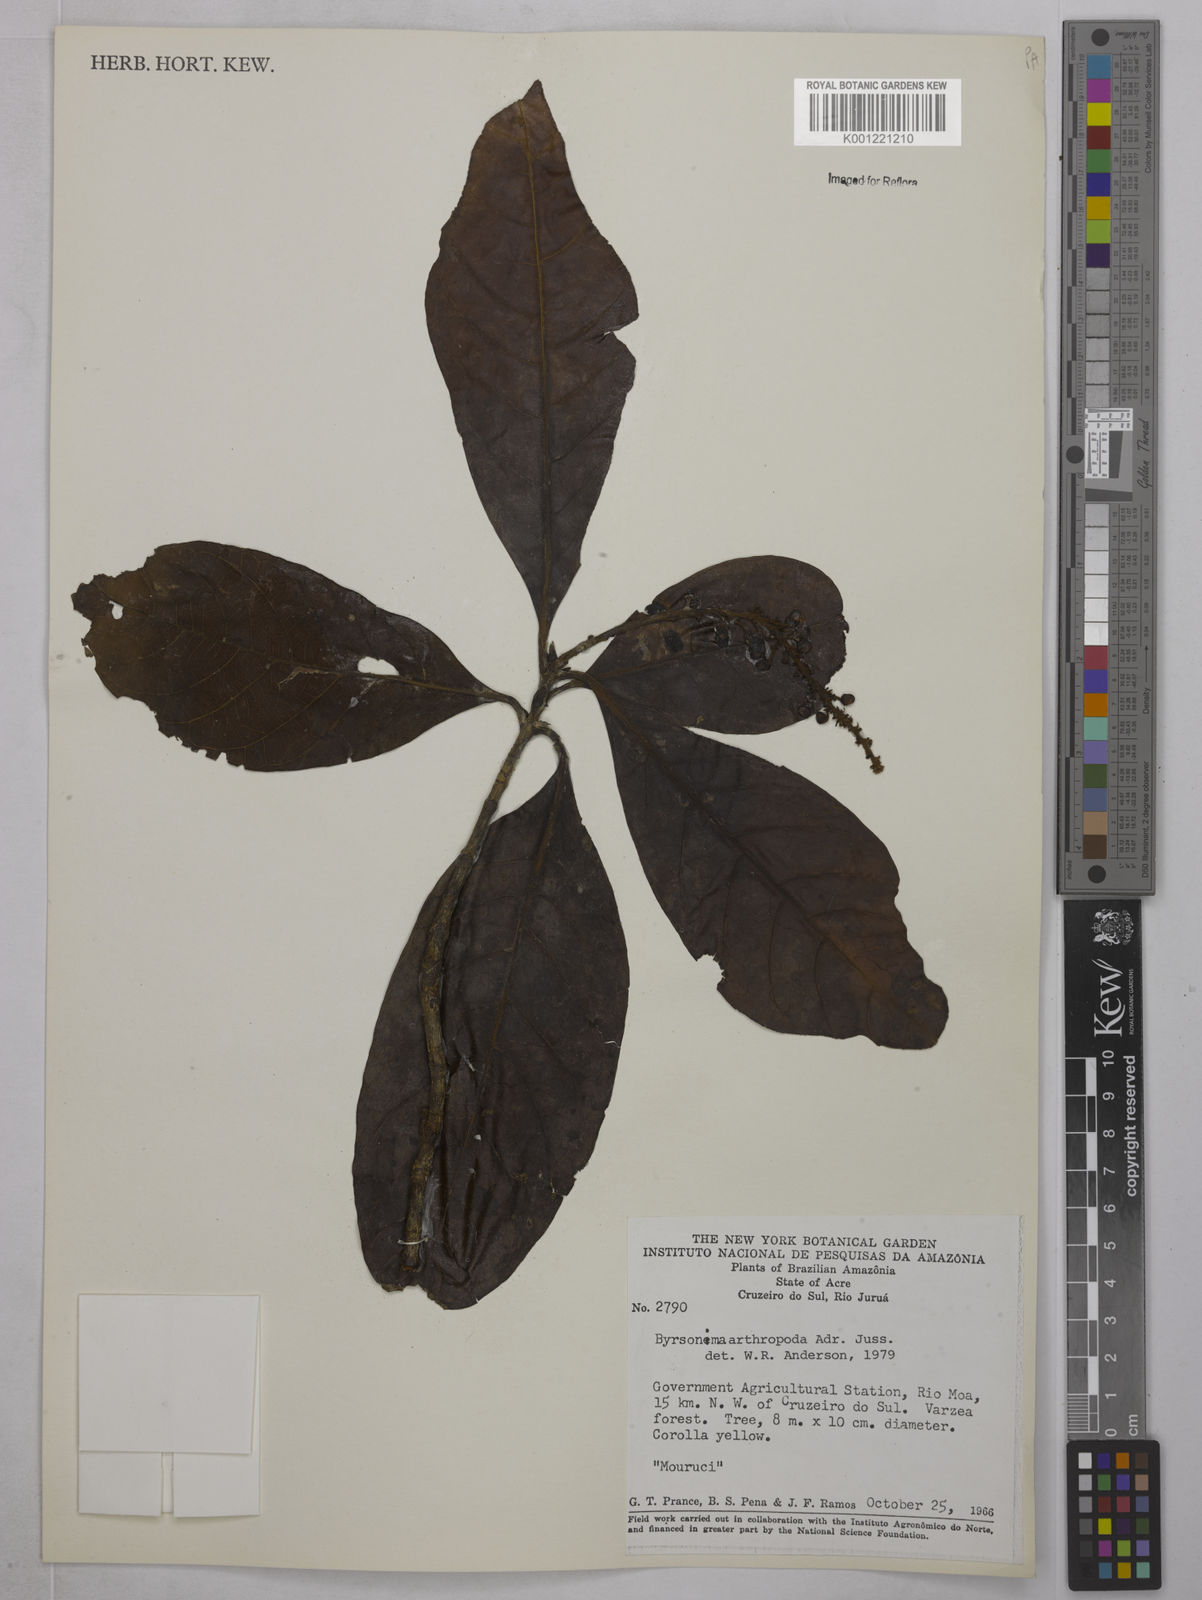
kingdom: Plantae
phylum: Tracheophyta
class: Magnoliopsida
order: Malpighiales
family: Malpighiaceae
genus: Byrsonima
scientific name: Byrsonima arthropoda
